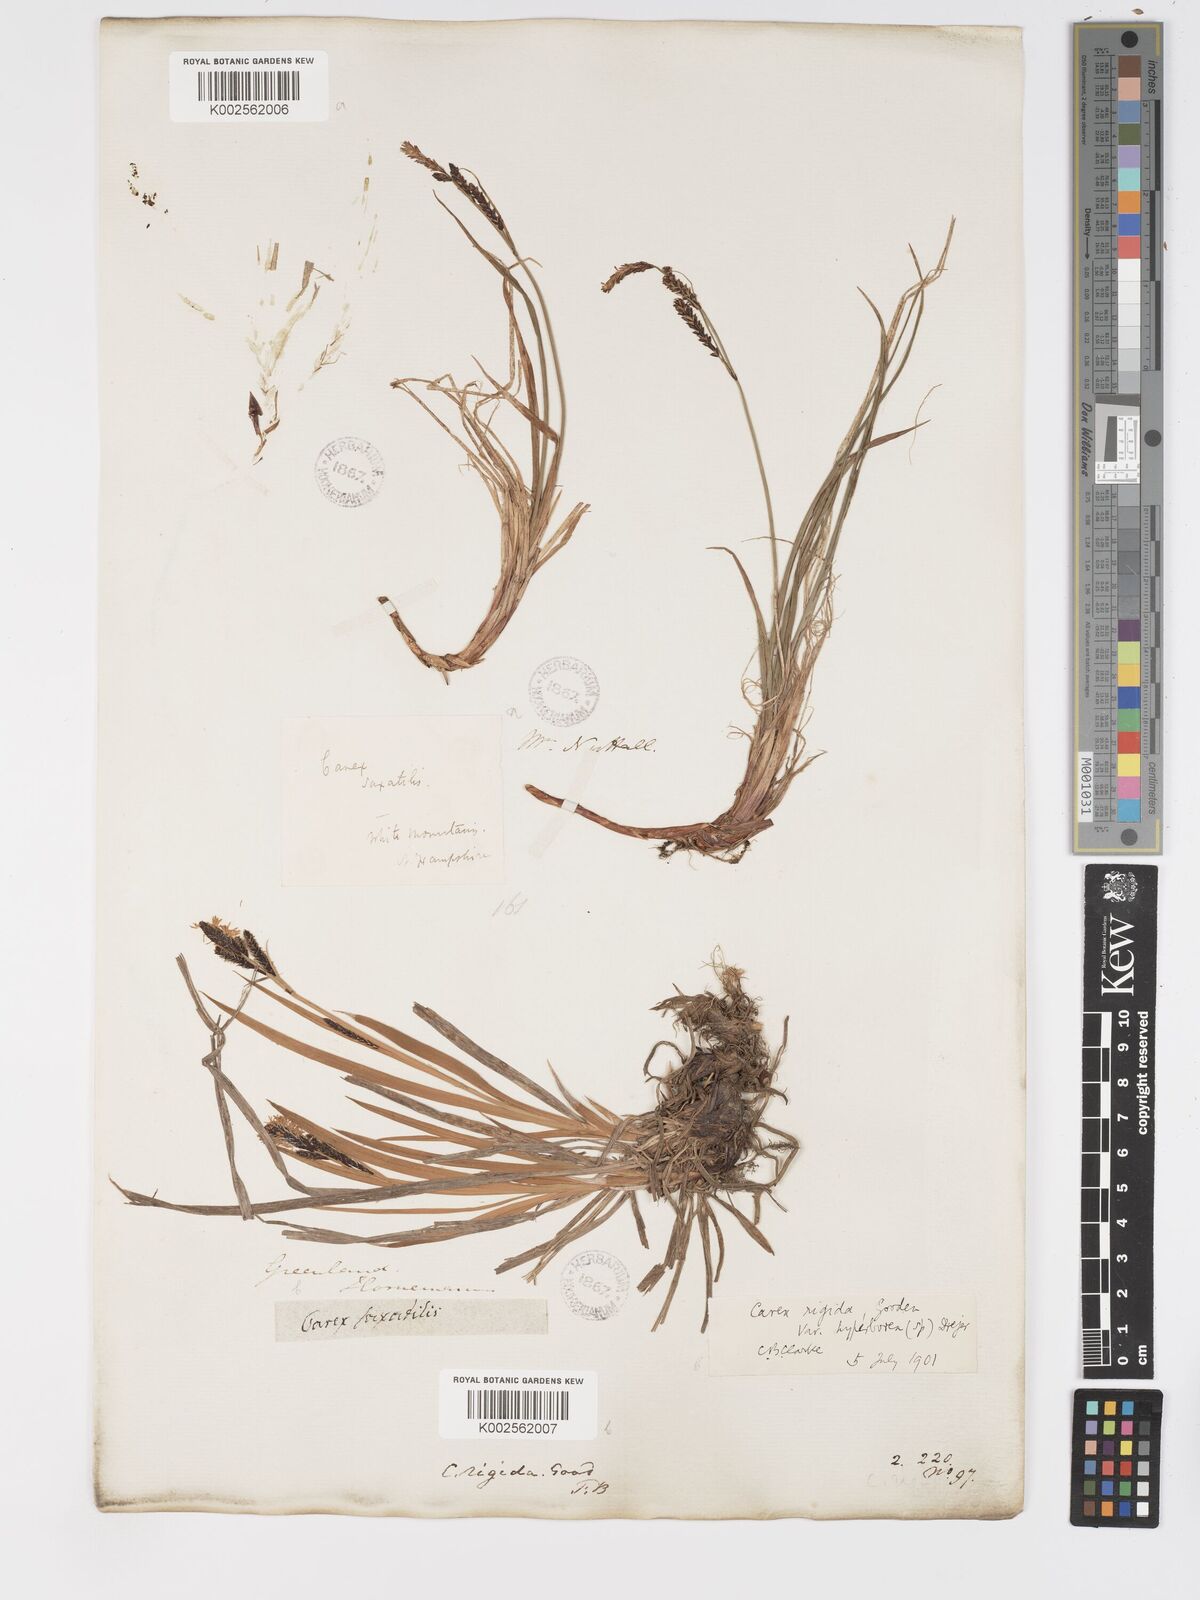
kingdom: Plantae
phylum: Tracheophyta
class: Liliopsida
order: Poales
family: Cyperaceae
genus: Carex
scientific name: Carex bigelowii
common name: Stiff sedge
